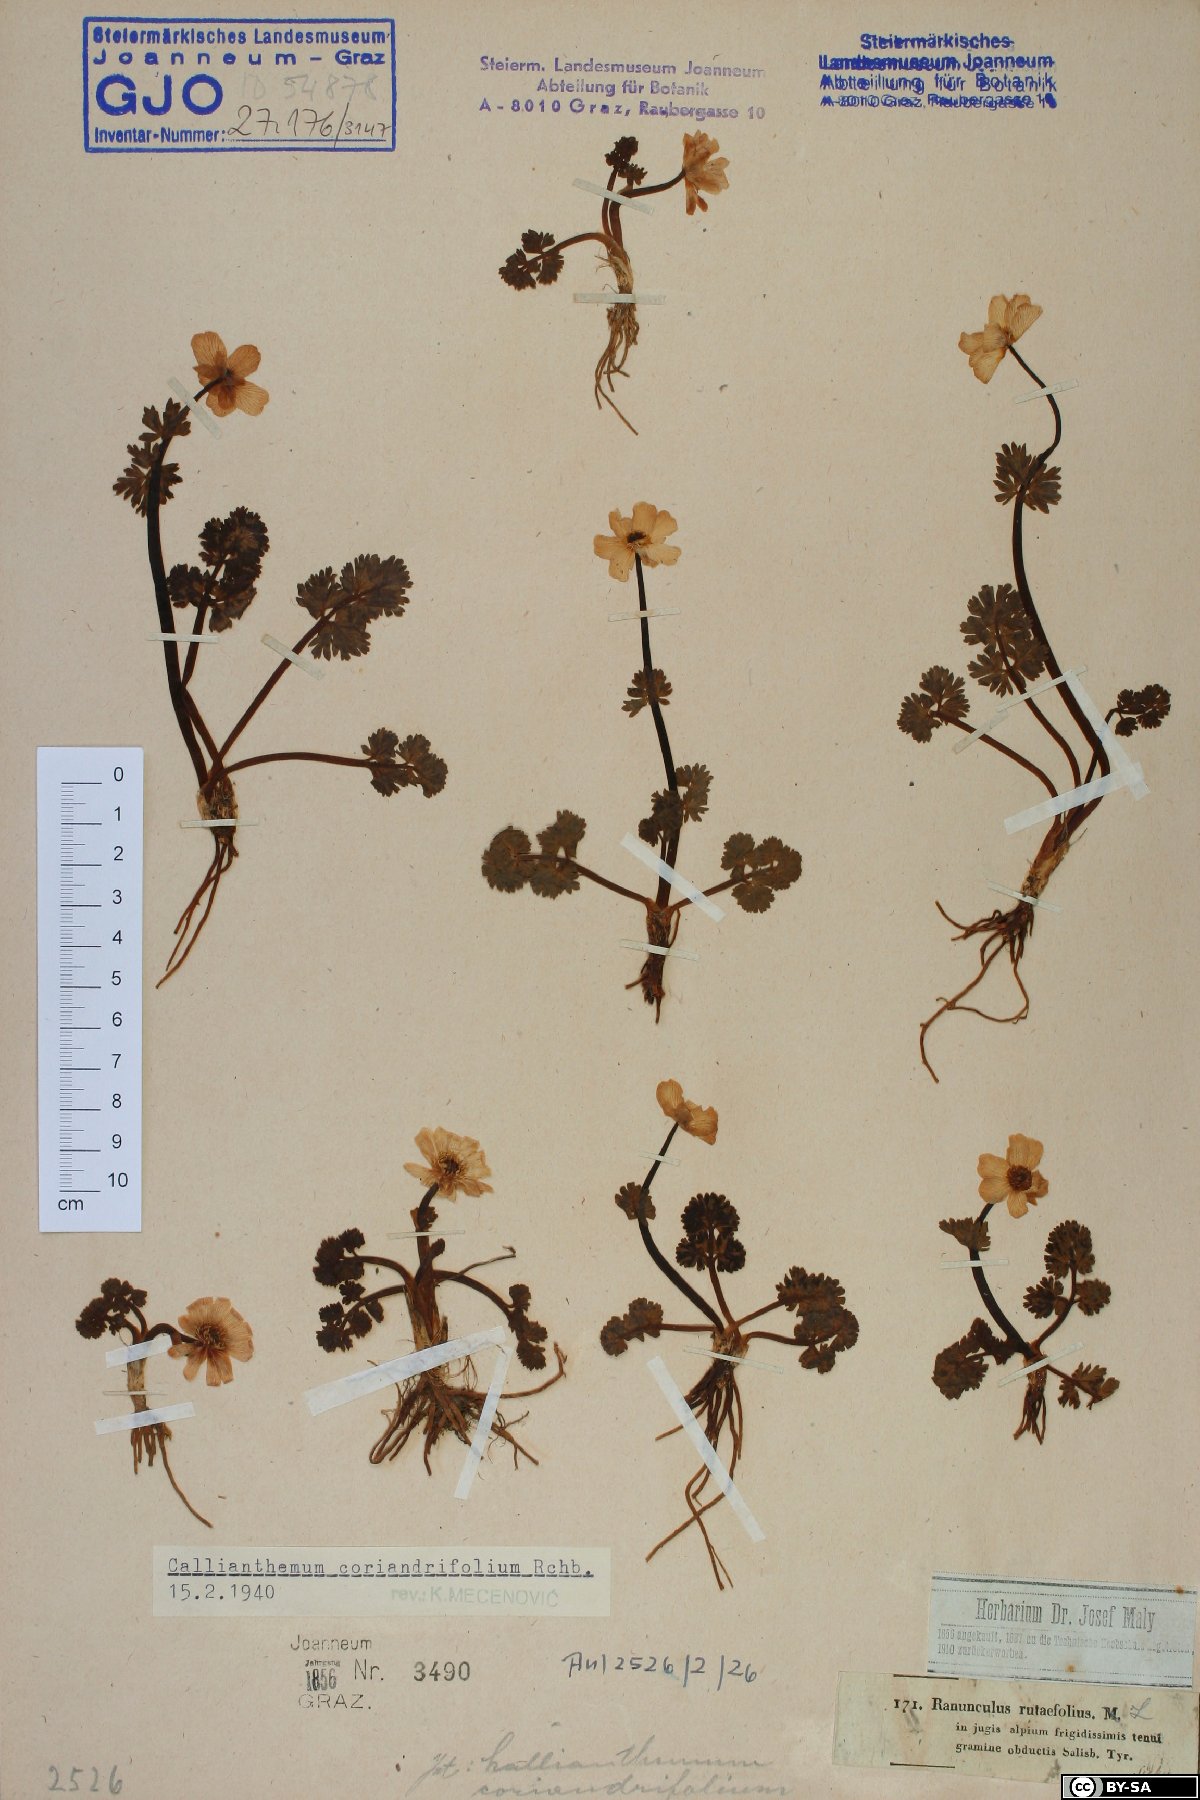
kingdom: Plantae
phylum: Tracheophyta
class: Magnoliopsida
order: Ranunculales
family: Ranunculaceae
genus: Callianthemum
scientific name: Callianthemum coriandrifolium
